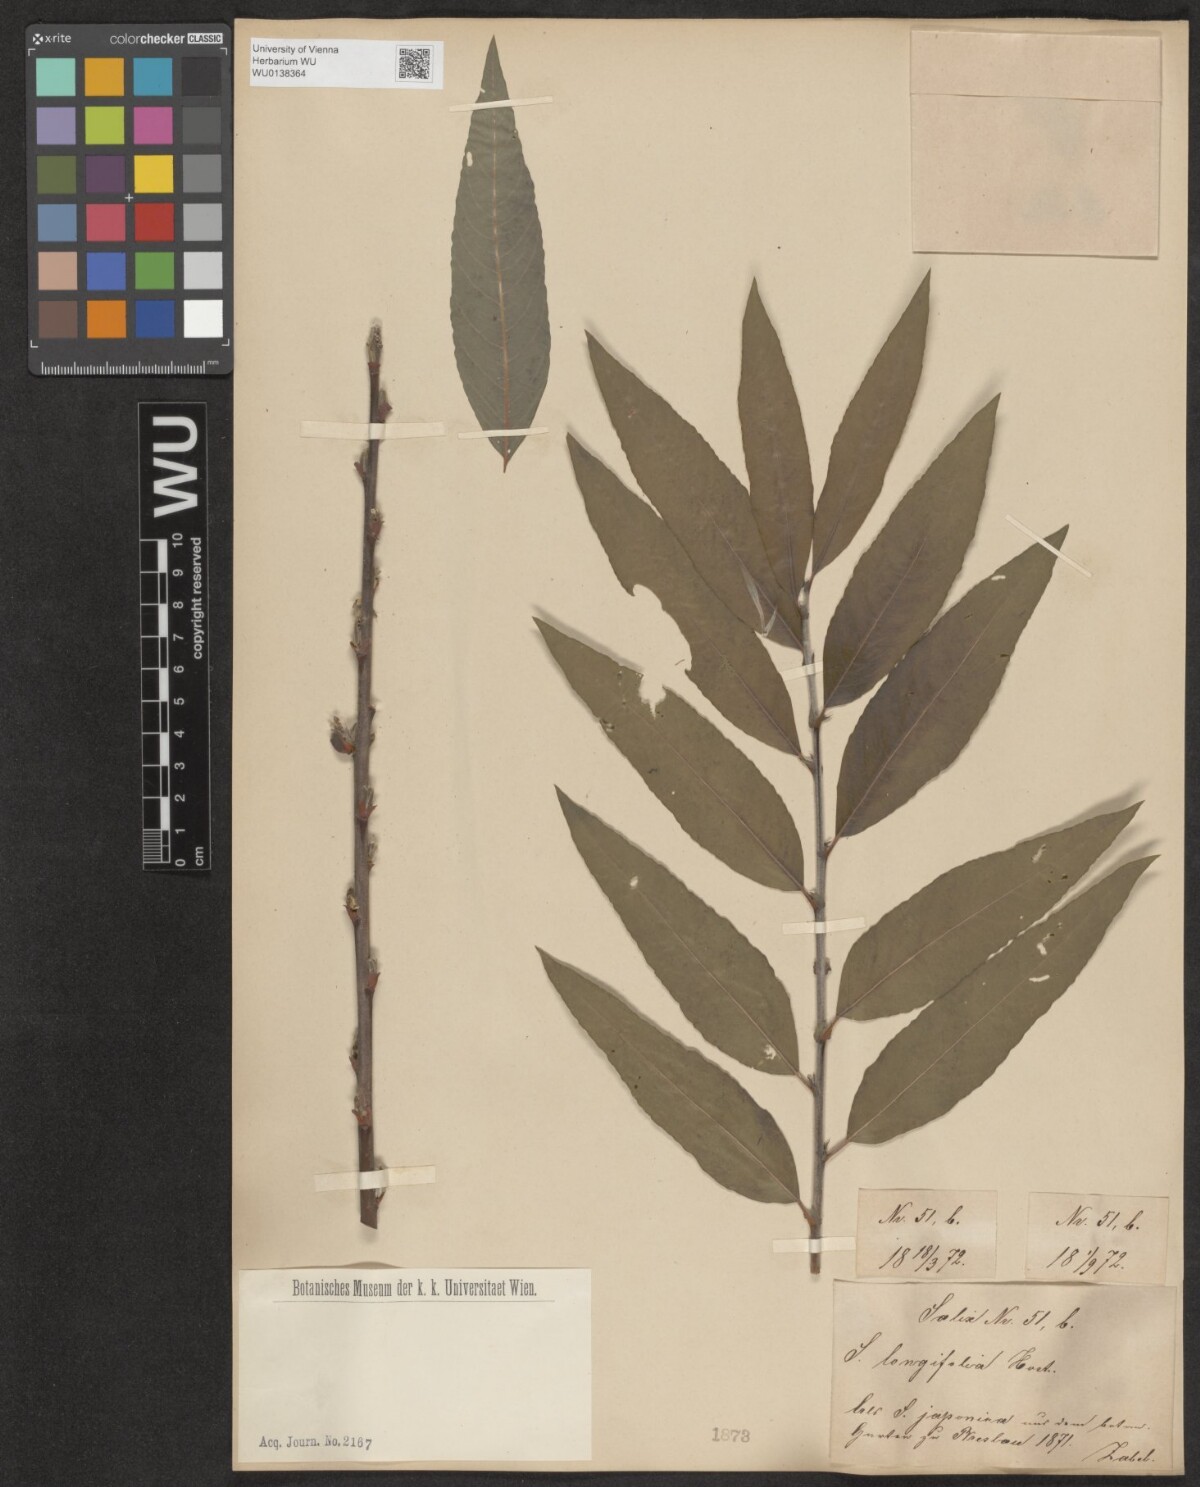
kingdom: Plantae
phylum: Tracheophyta
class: Magnoliopsida
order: Malpighiales
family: Salicaceae
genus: Salix
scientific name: Salix interior
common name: Sandbar willow
